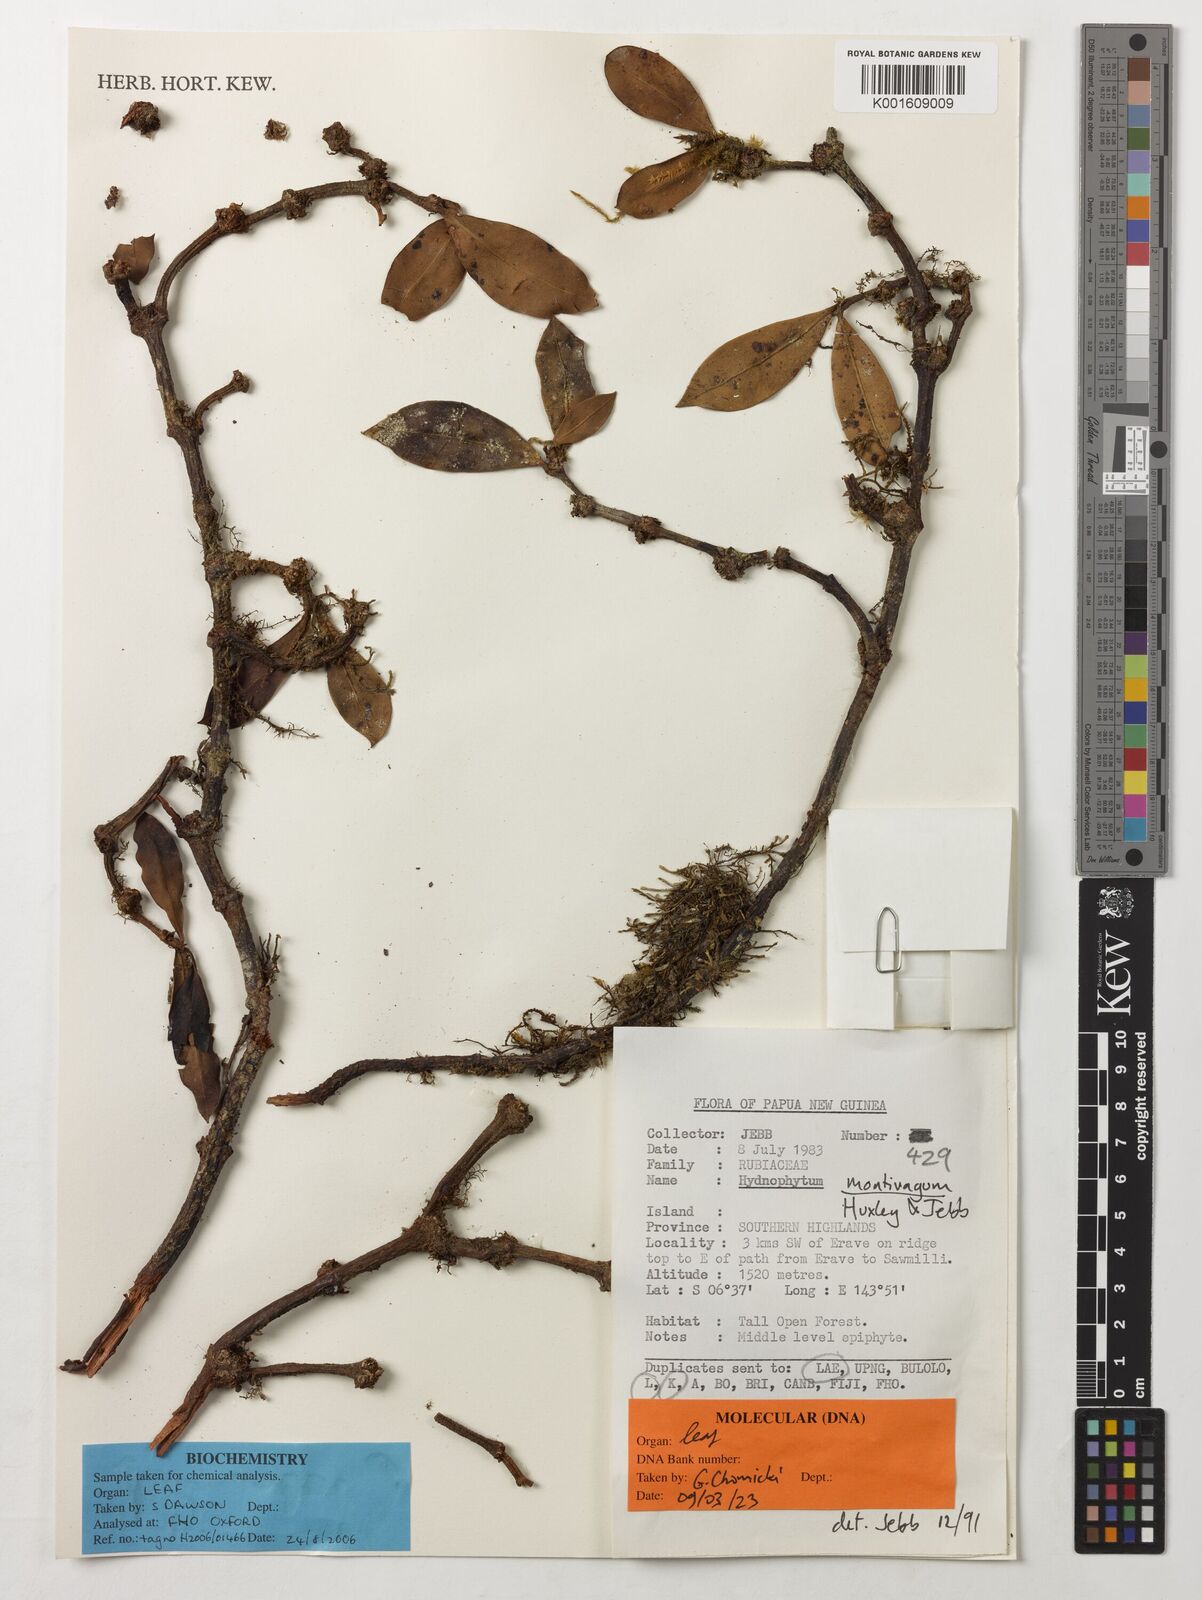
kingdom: Plantae
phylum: Tracheophyta
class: Magnoliopsida
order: Gentianales
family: Rubiaceae
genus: Hydnophytum
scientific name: Hydnophytum
